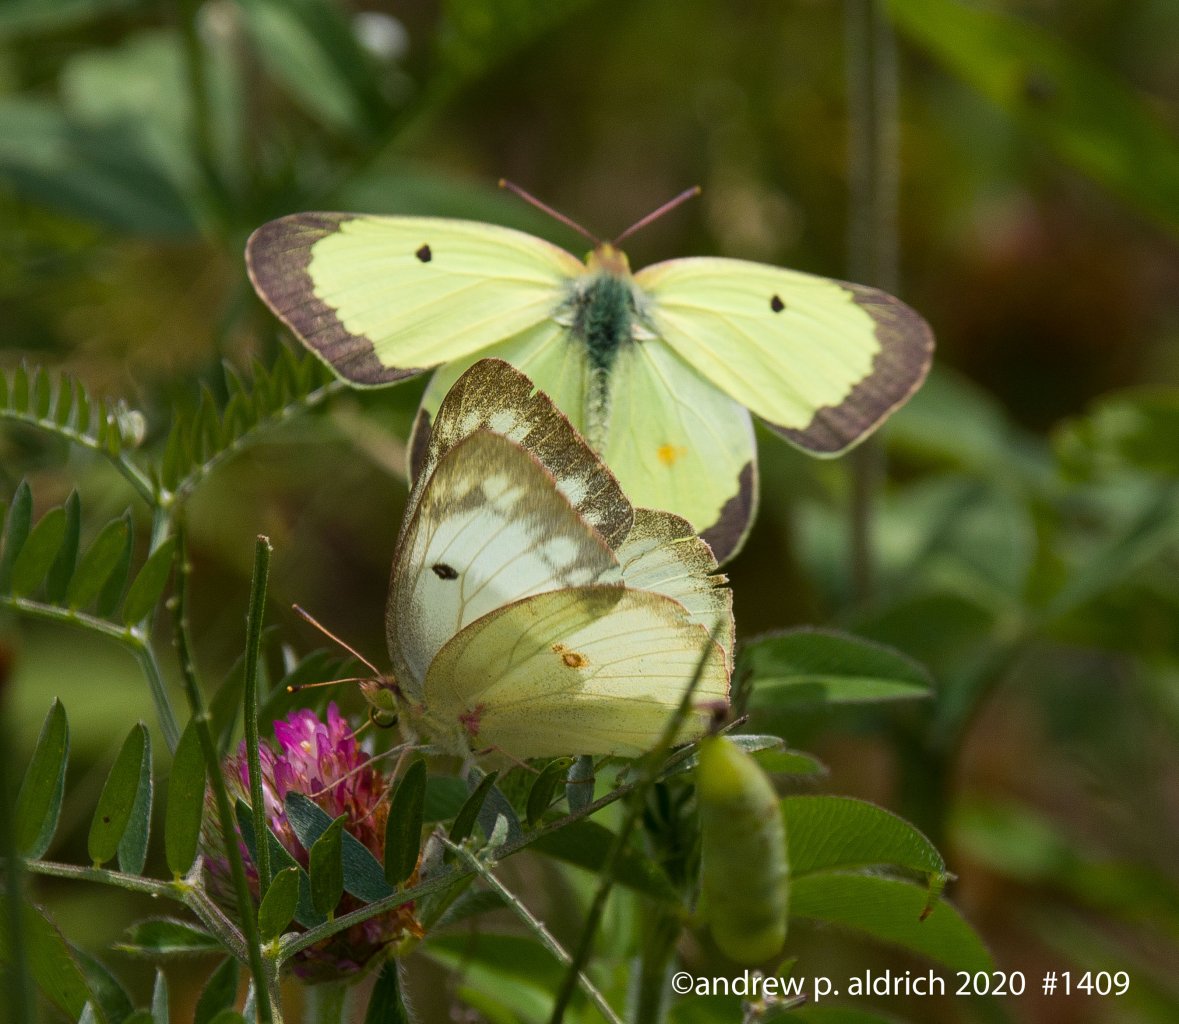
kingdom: Animalia
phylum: Arthropoda
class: Insecta
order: Lepidoptera
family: Pieridae
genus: Colias
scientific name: Colias philodice
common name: Clouded Sulphur
